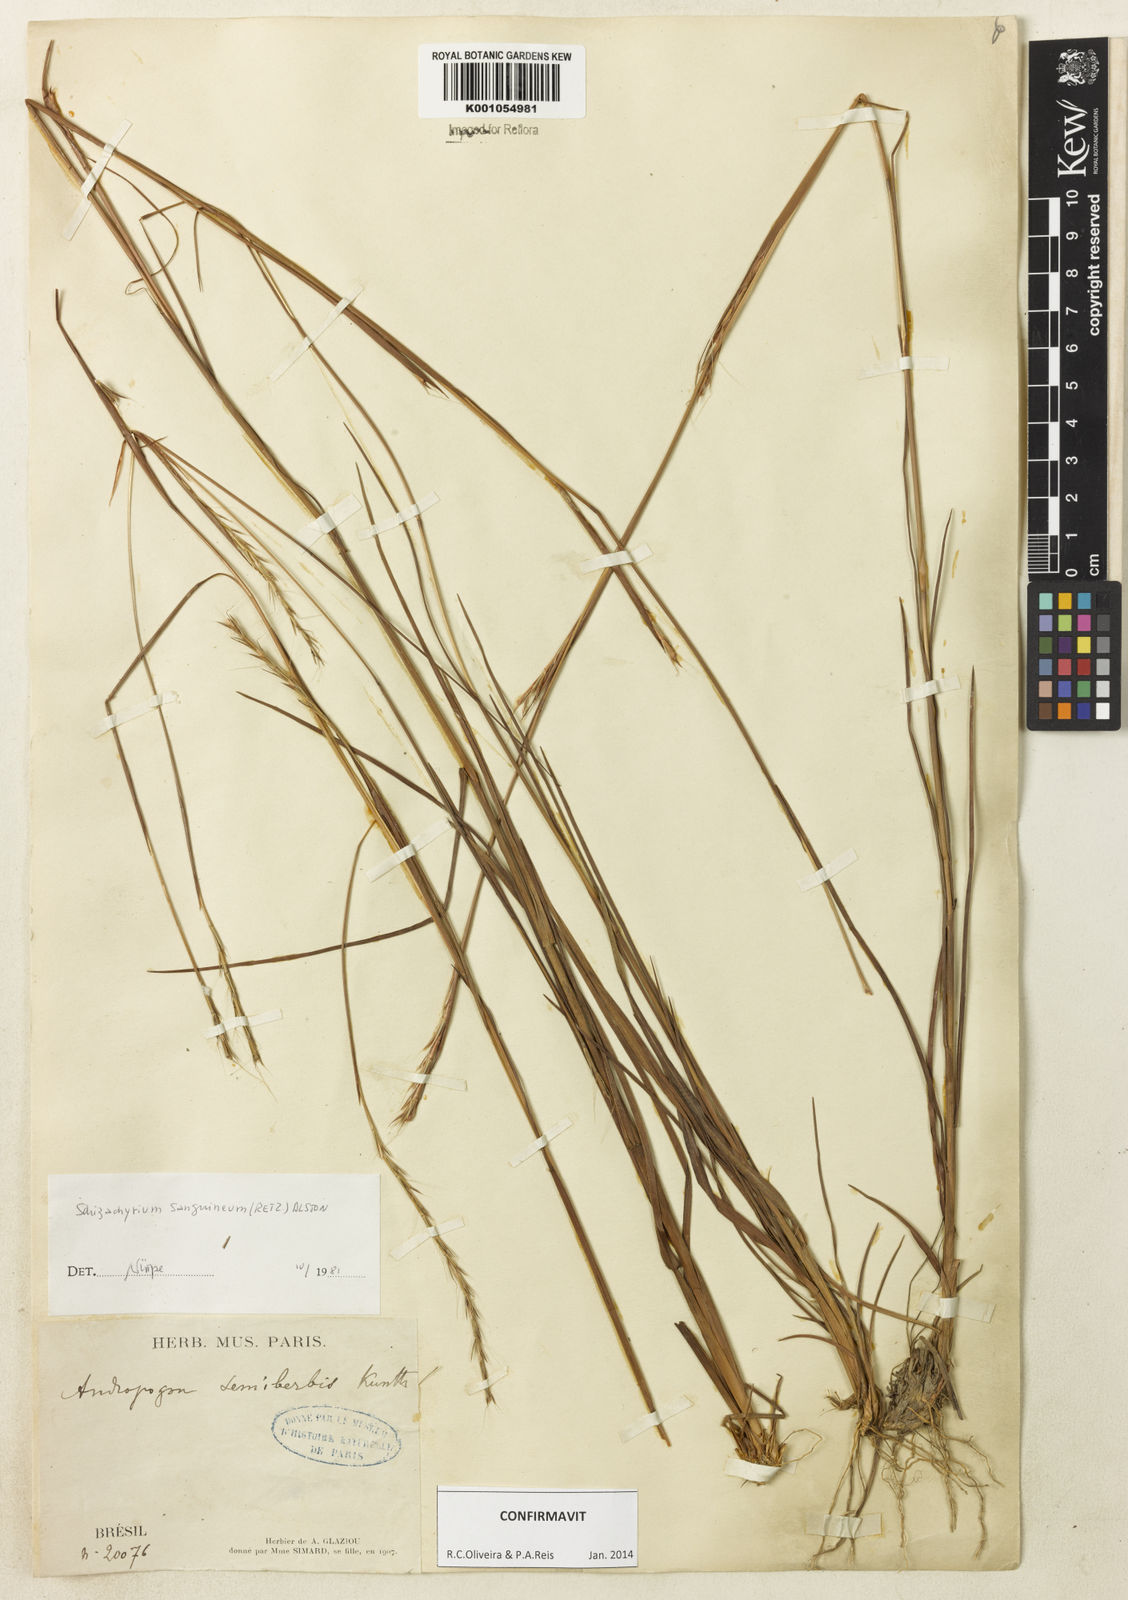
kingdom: Plantae
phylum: Tracheophyta
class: Liliopsida
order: Poales
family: Poaceae
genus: Schizachyrium
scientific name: Schizachyrium sanguineum
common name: Crimson bluestem
